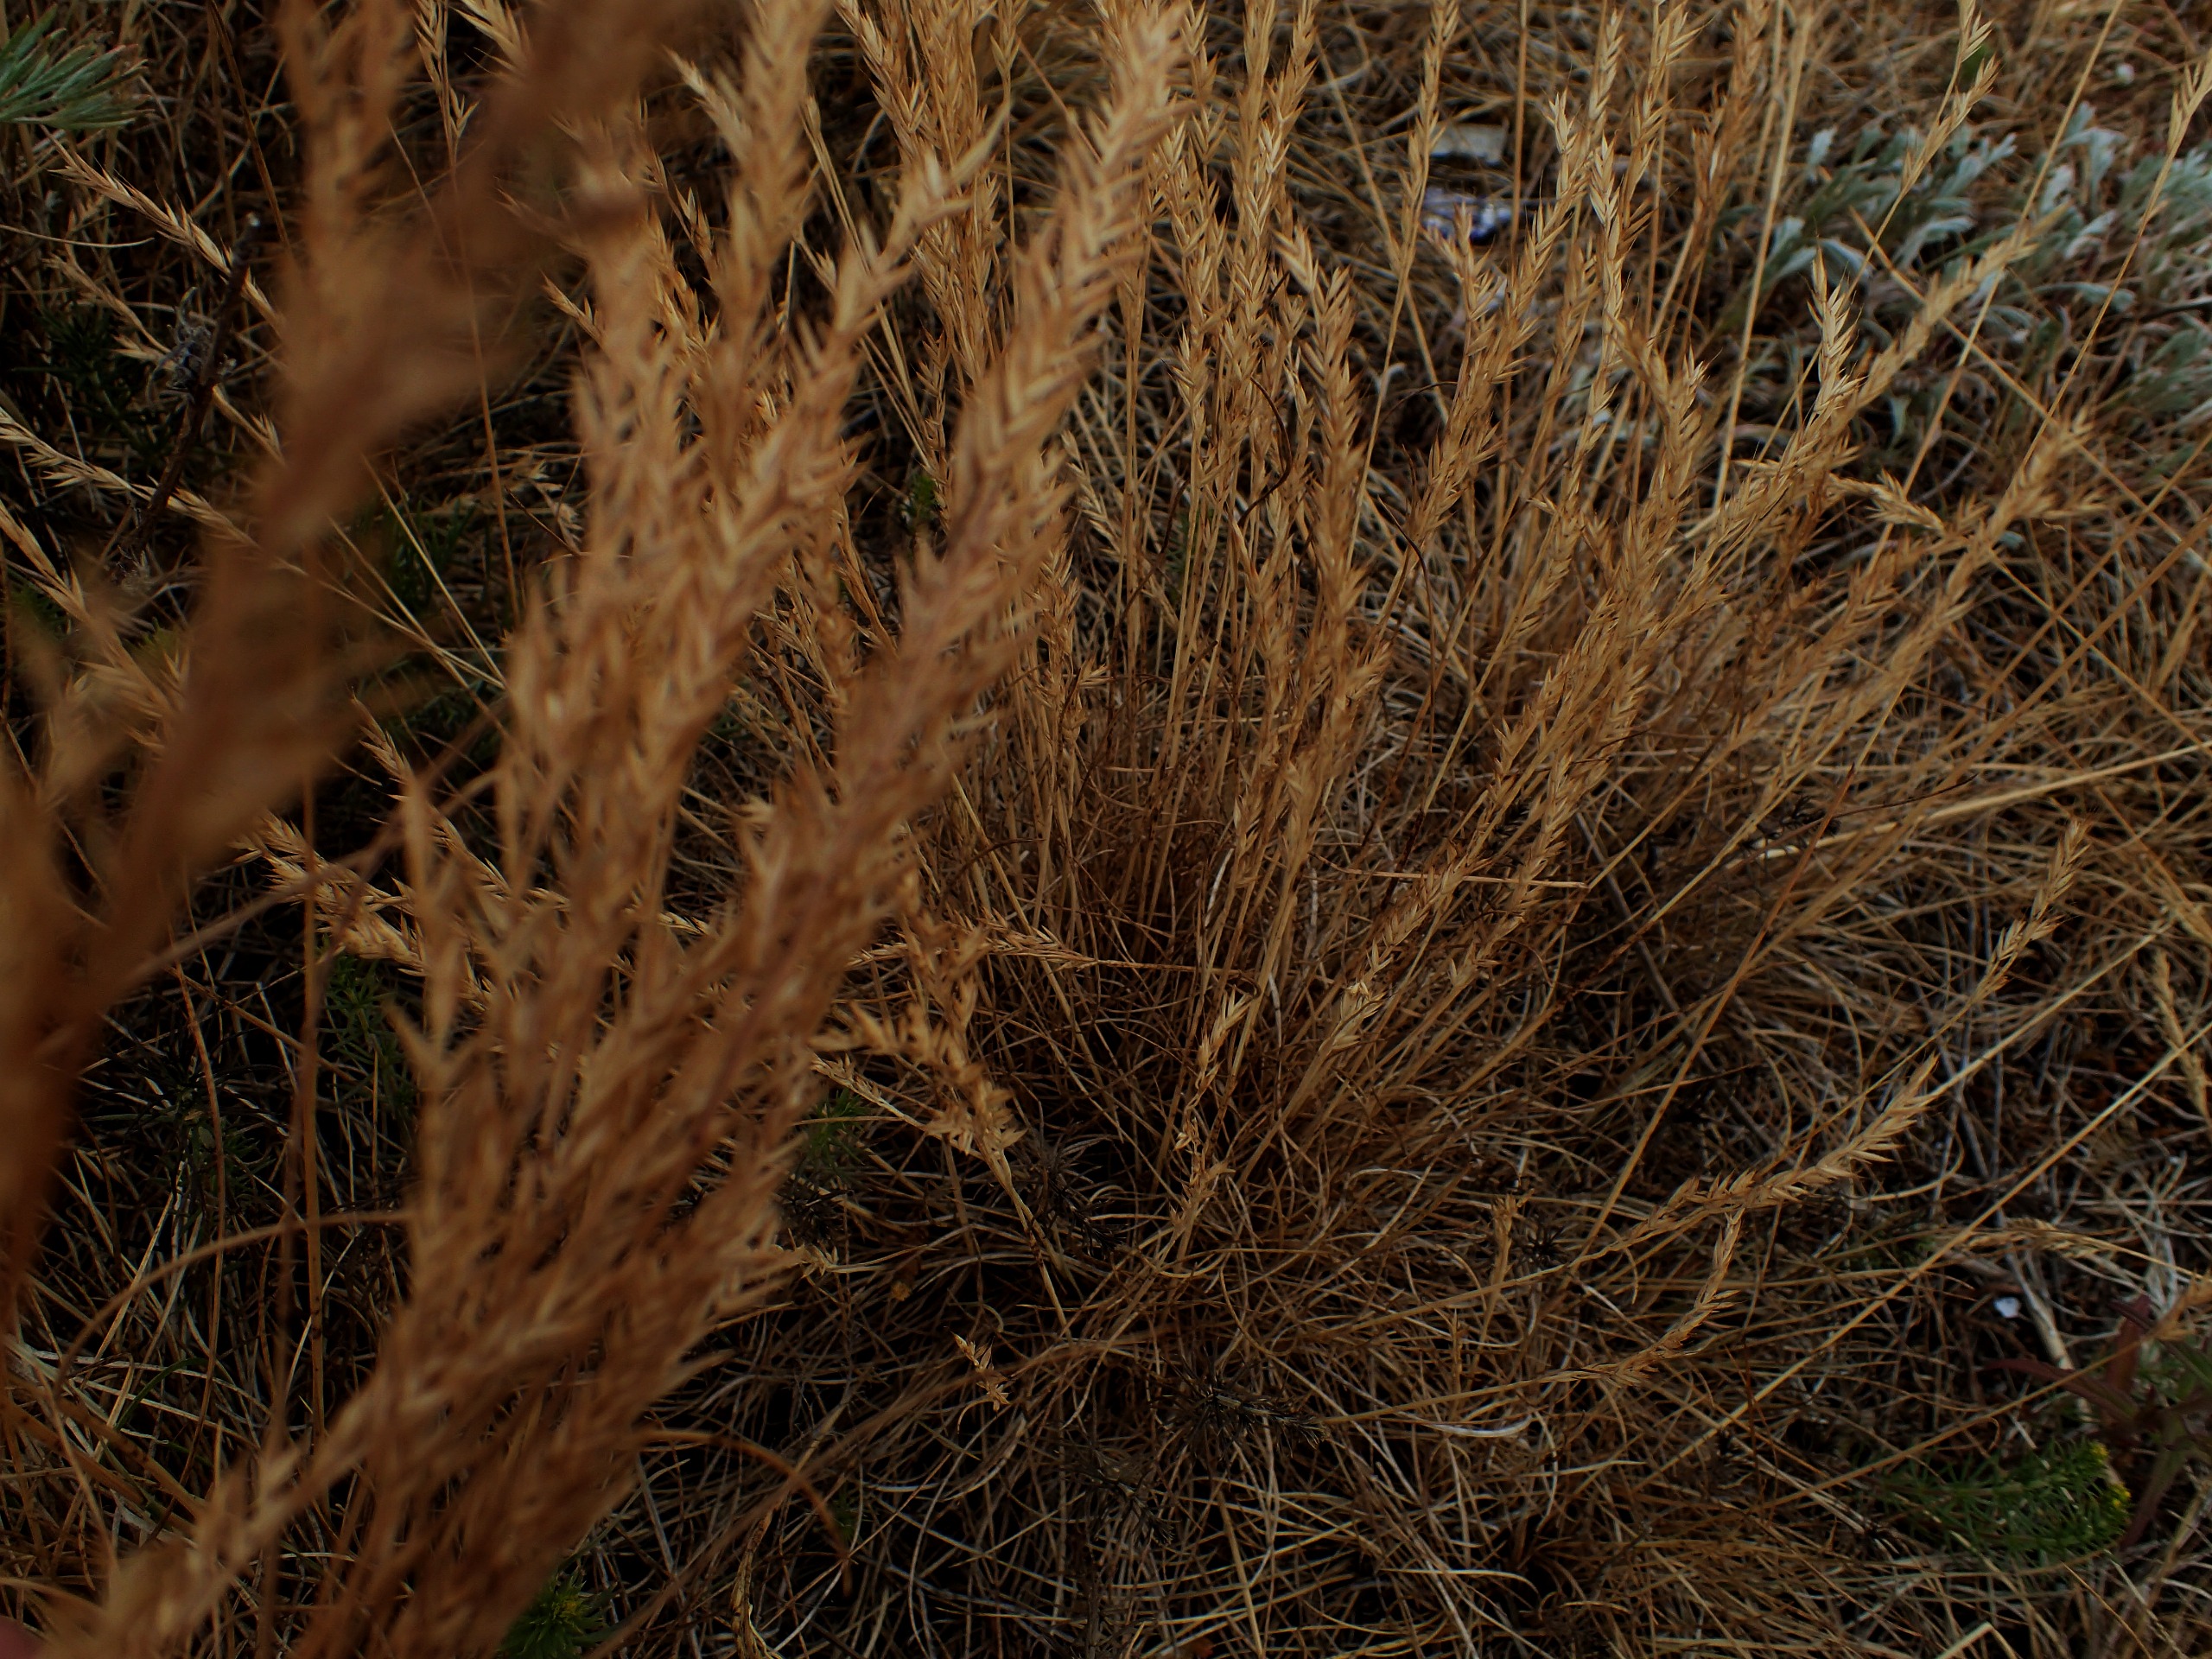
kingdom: Plantae
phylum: Tracheophyta
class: Liliopsida
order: Poales
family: Poaceae
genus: Festuca
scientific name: Festuca ovina
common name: Fåre-svingel
